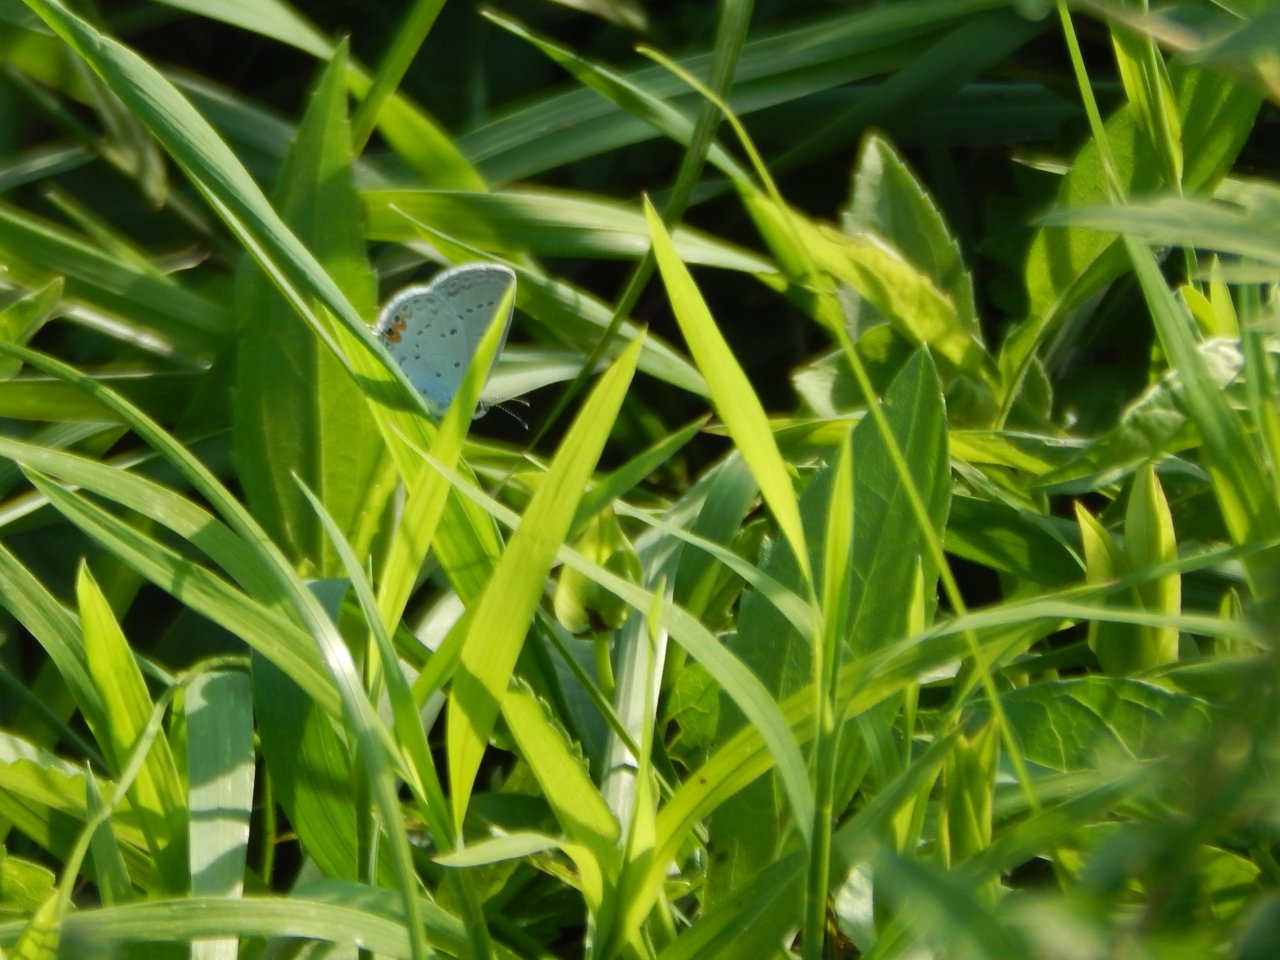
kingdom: Animalia
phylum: Arthropoda
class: Insecta
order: Lepidoptera
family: Lycaenidae
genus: Elkalyce
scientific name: Elkalyce comyntas
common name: Eastern Tailed-Blue
